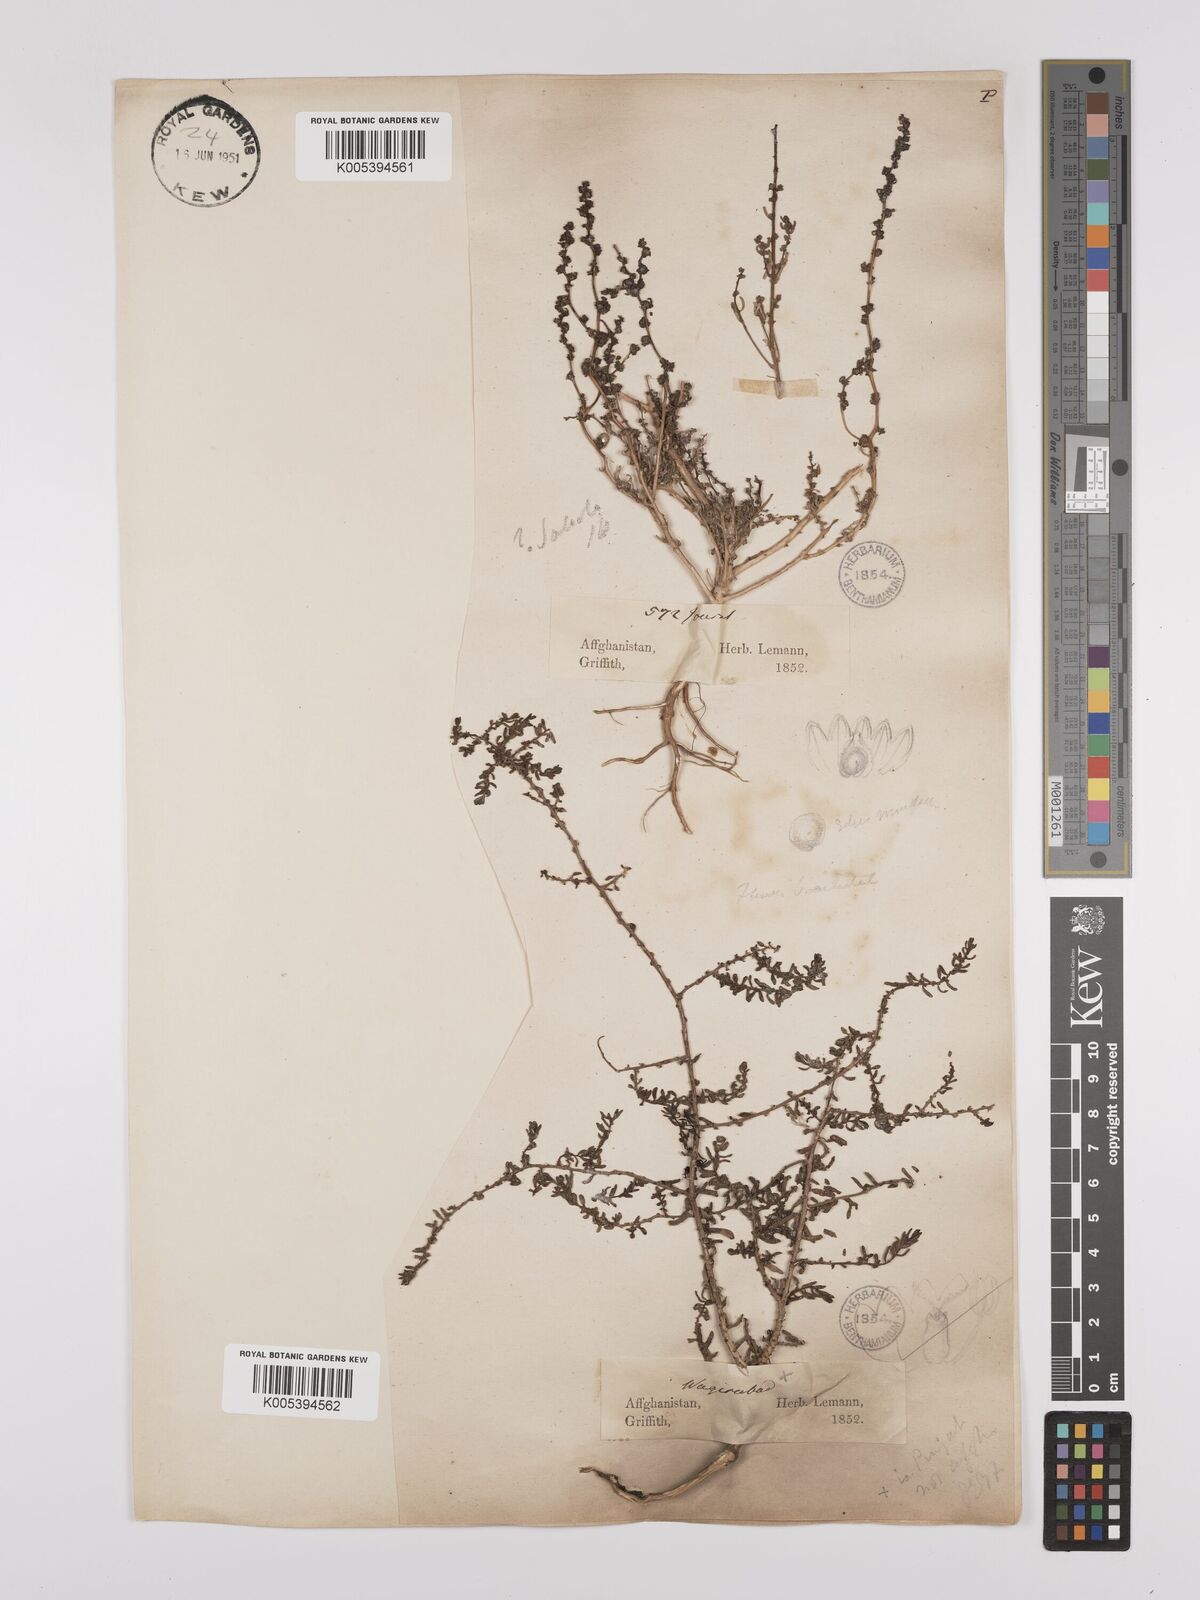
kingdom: Plantae
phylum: Tracheophyta
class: Magnoliopsida
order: Caryophyllales
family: Amaranthaceae
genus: Suaeda
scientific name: Suaeda
